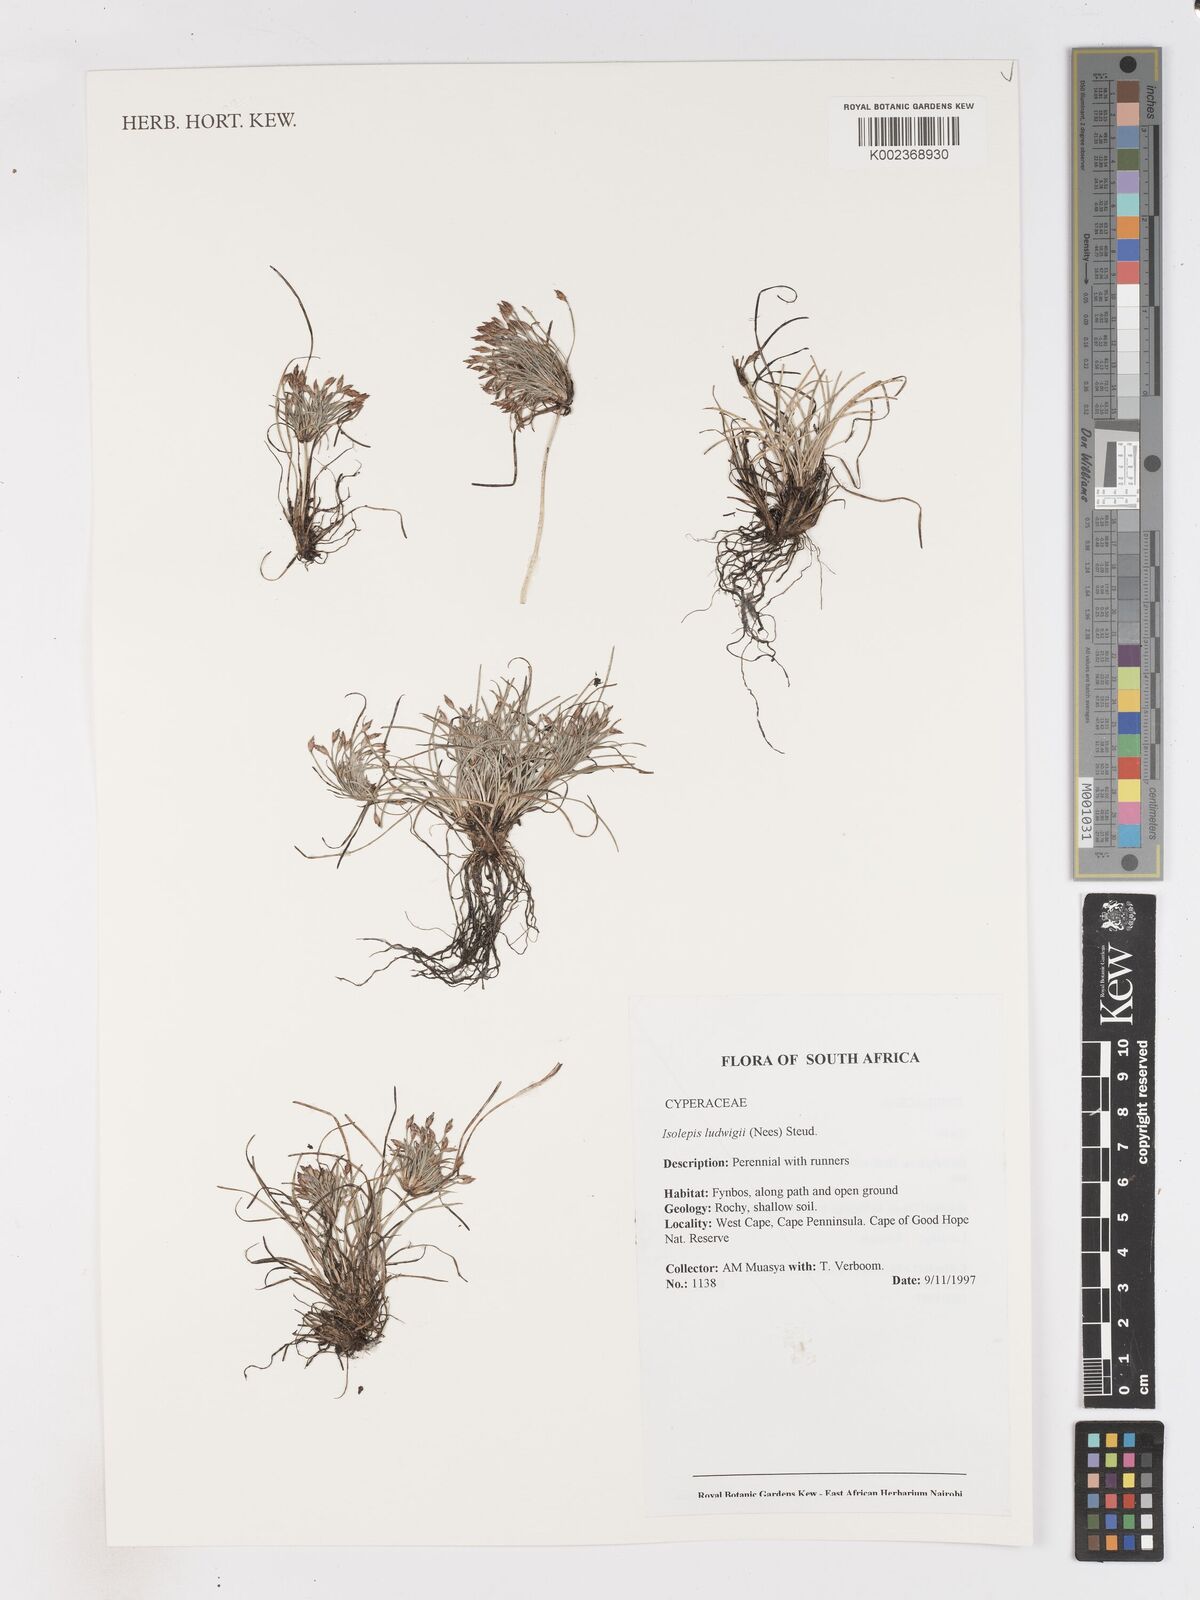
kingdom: Plantae
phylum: Tracheophyta
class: Liliopsida
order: Poales
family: Cyperaceae
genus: Isolepis
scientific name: Isolepis ludwigii
